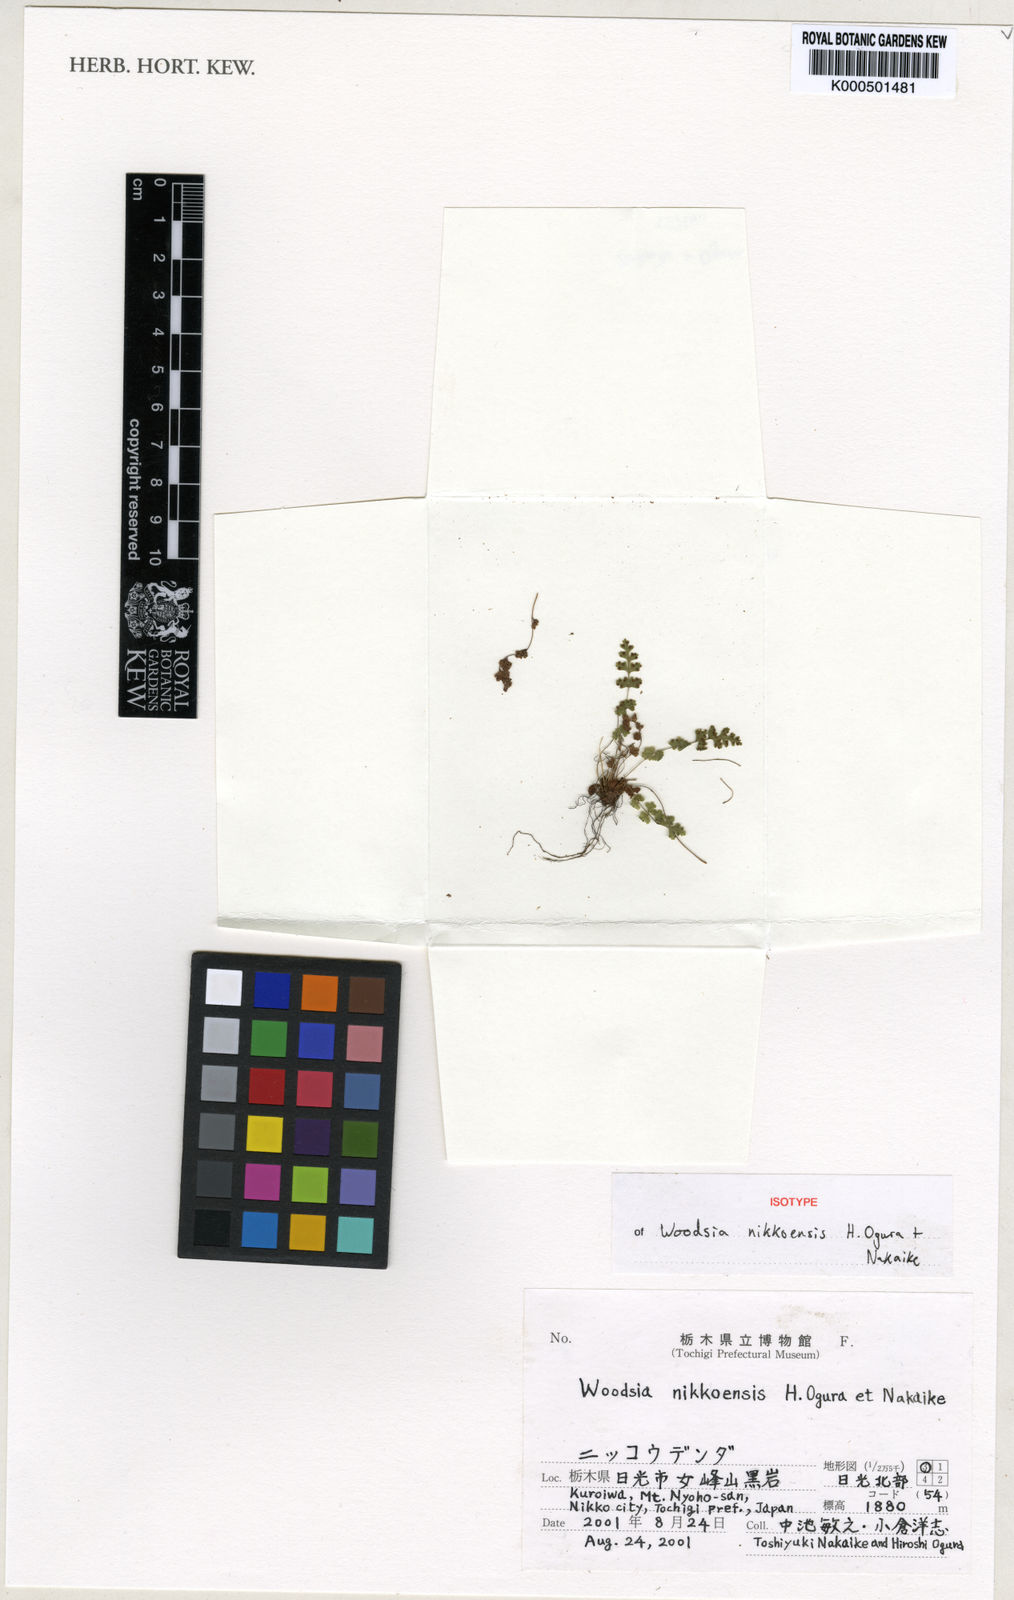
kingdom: Plantae
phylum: Tracheophyta
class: Polypodiopsida
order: Polypodiales
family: Woodsiaceae
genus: Woodsia
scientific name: Woodsia nikkoensis
